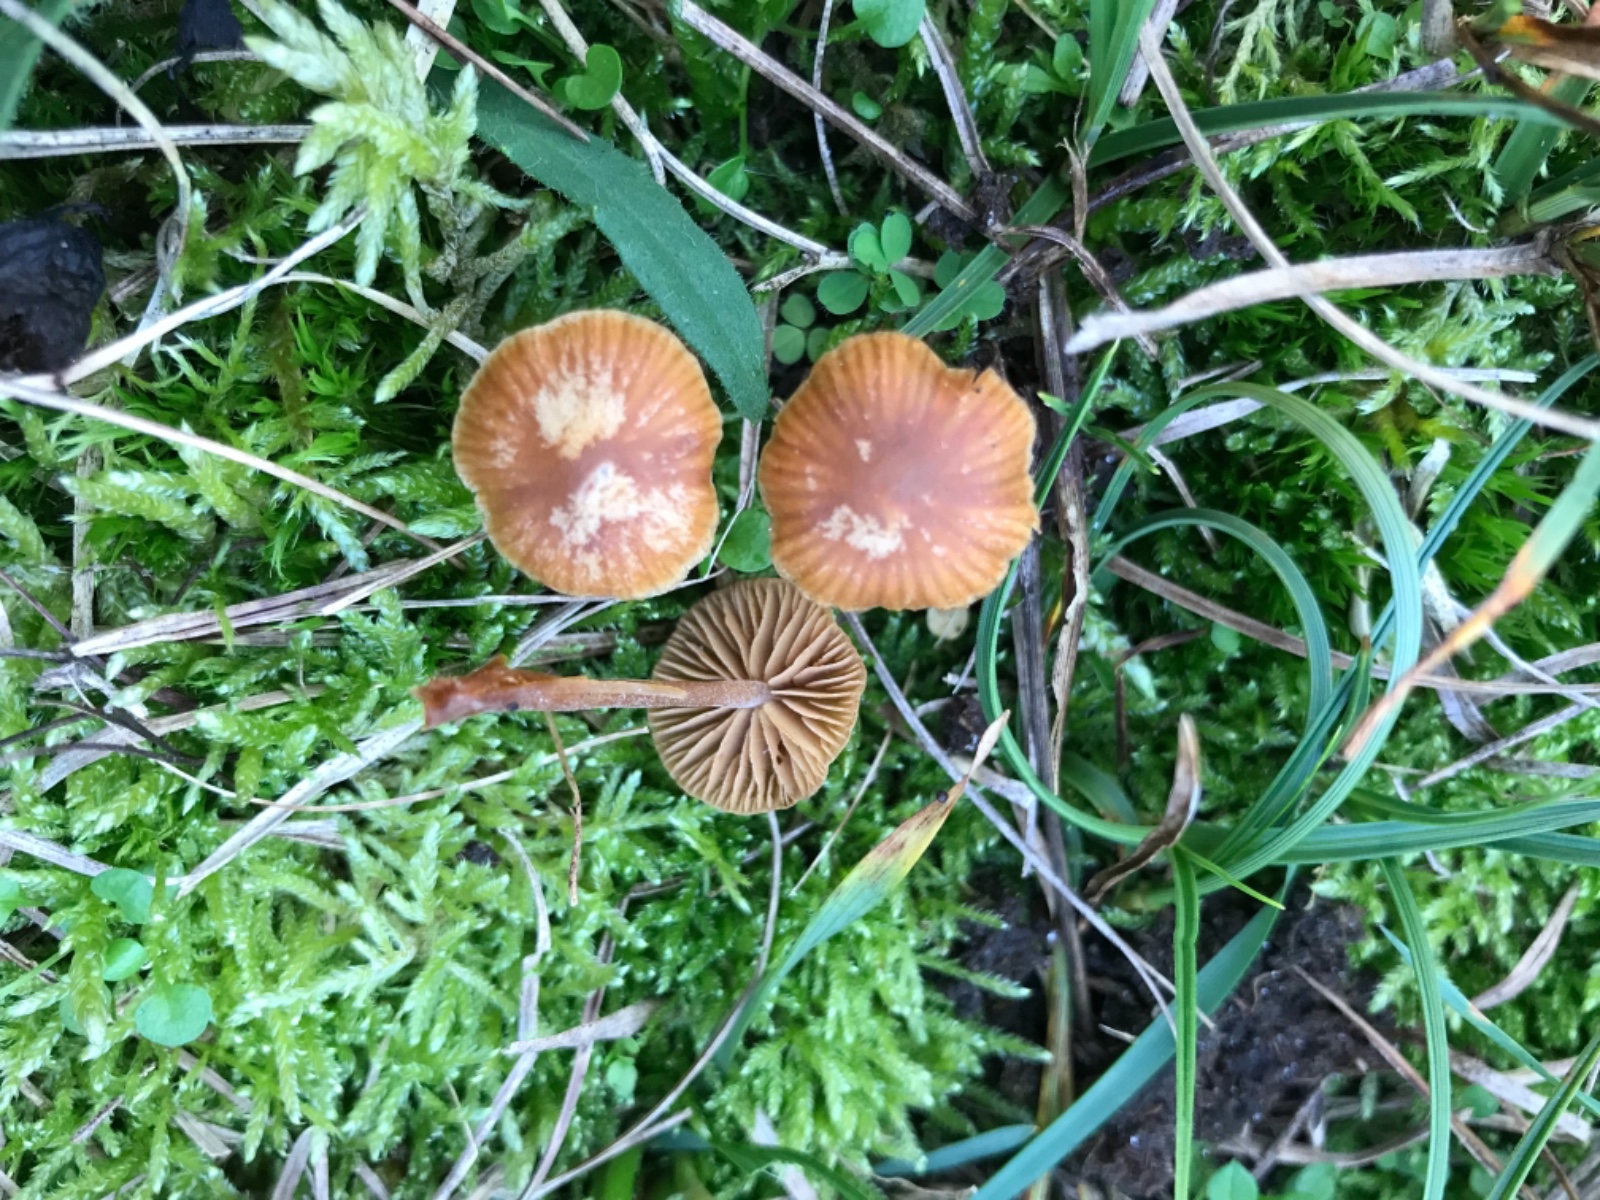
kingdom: Fungi
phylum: Basidiomycota
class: Agaricomycetes
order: Agaricales
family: Hymenogastraceae
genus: Galerina
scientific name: Galerina
